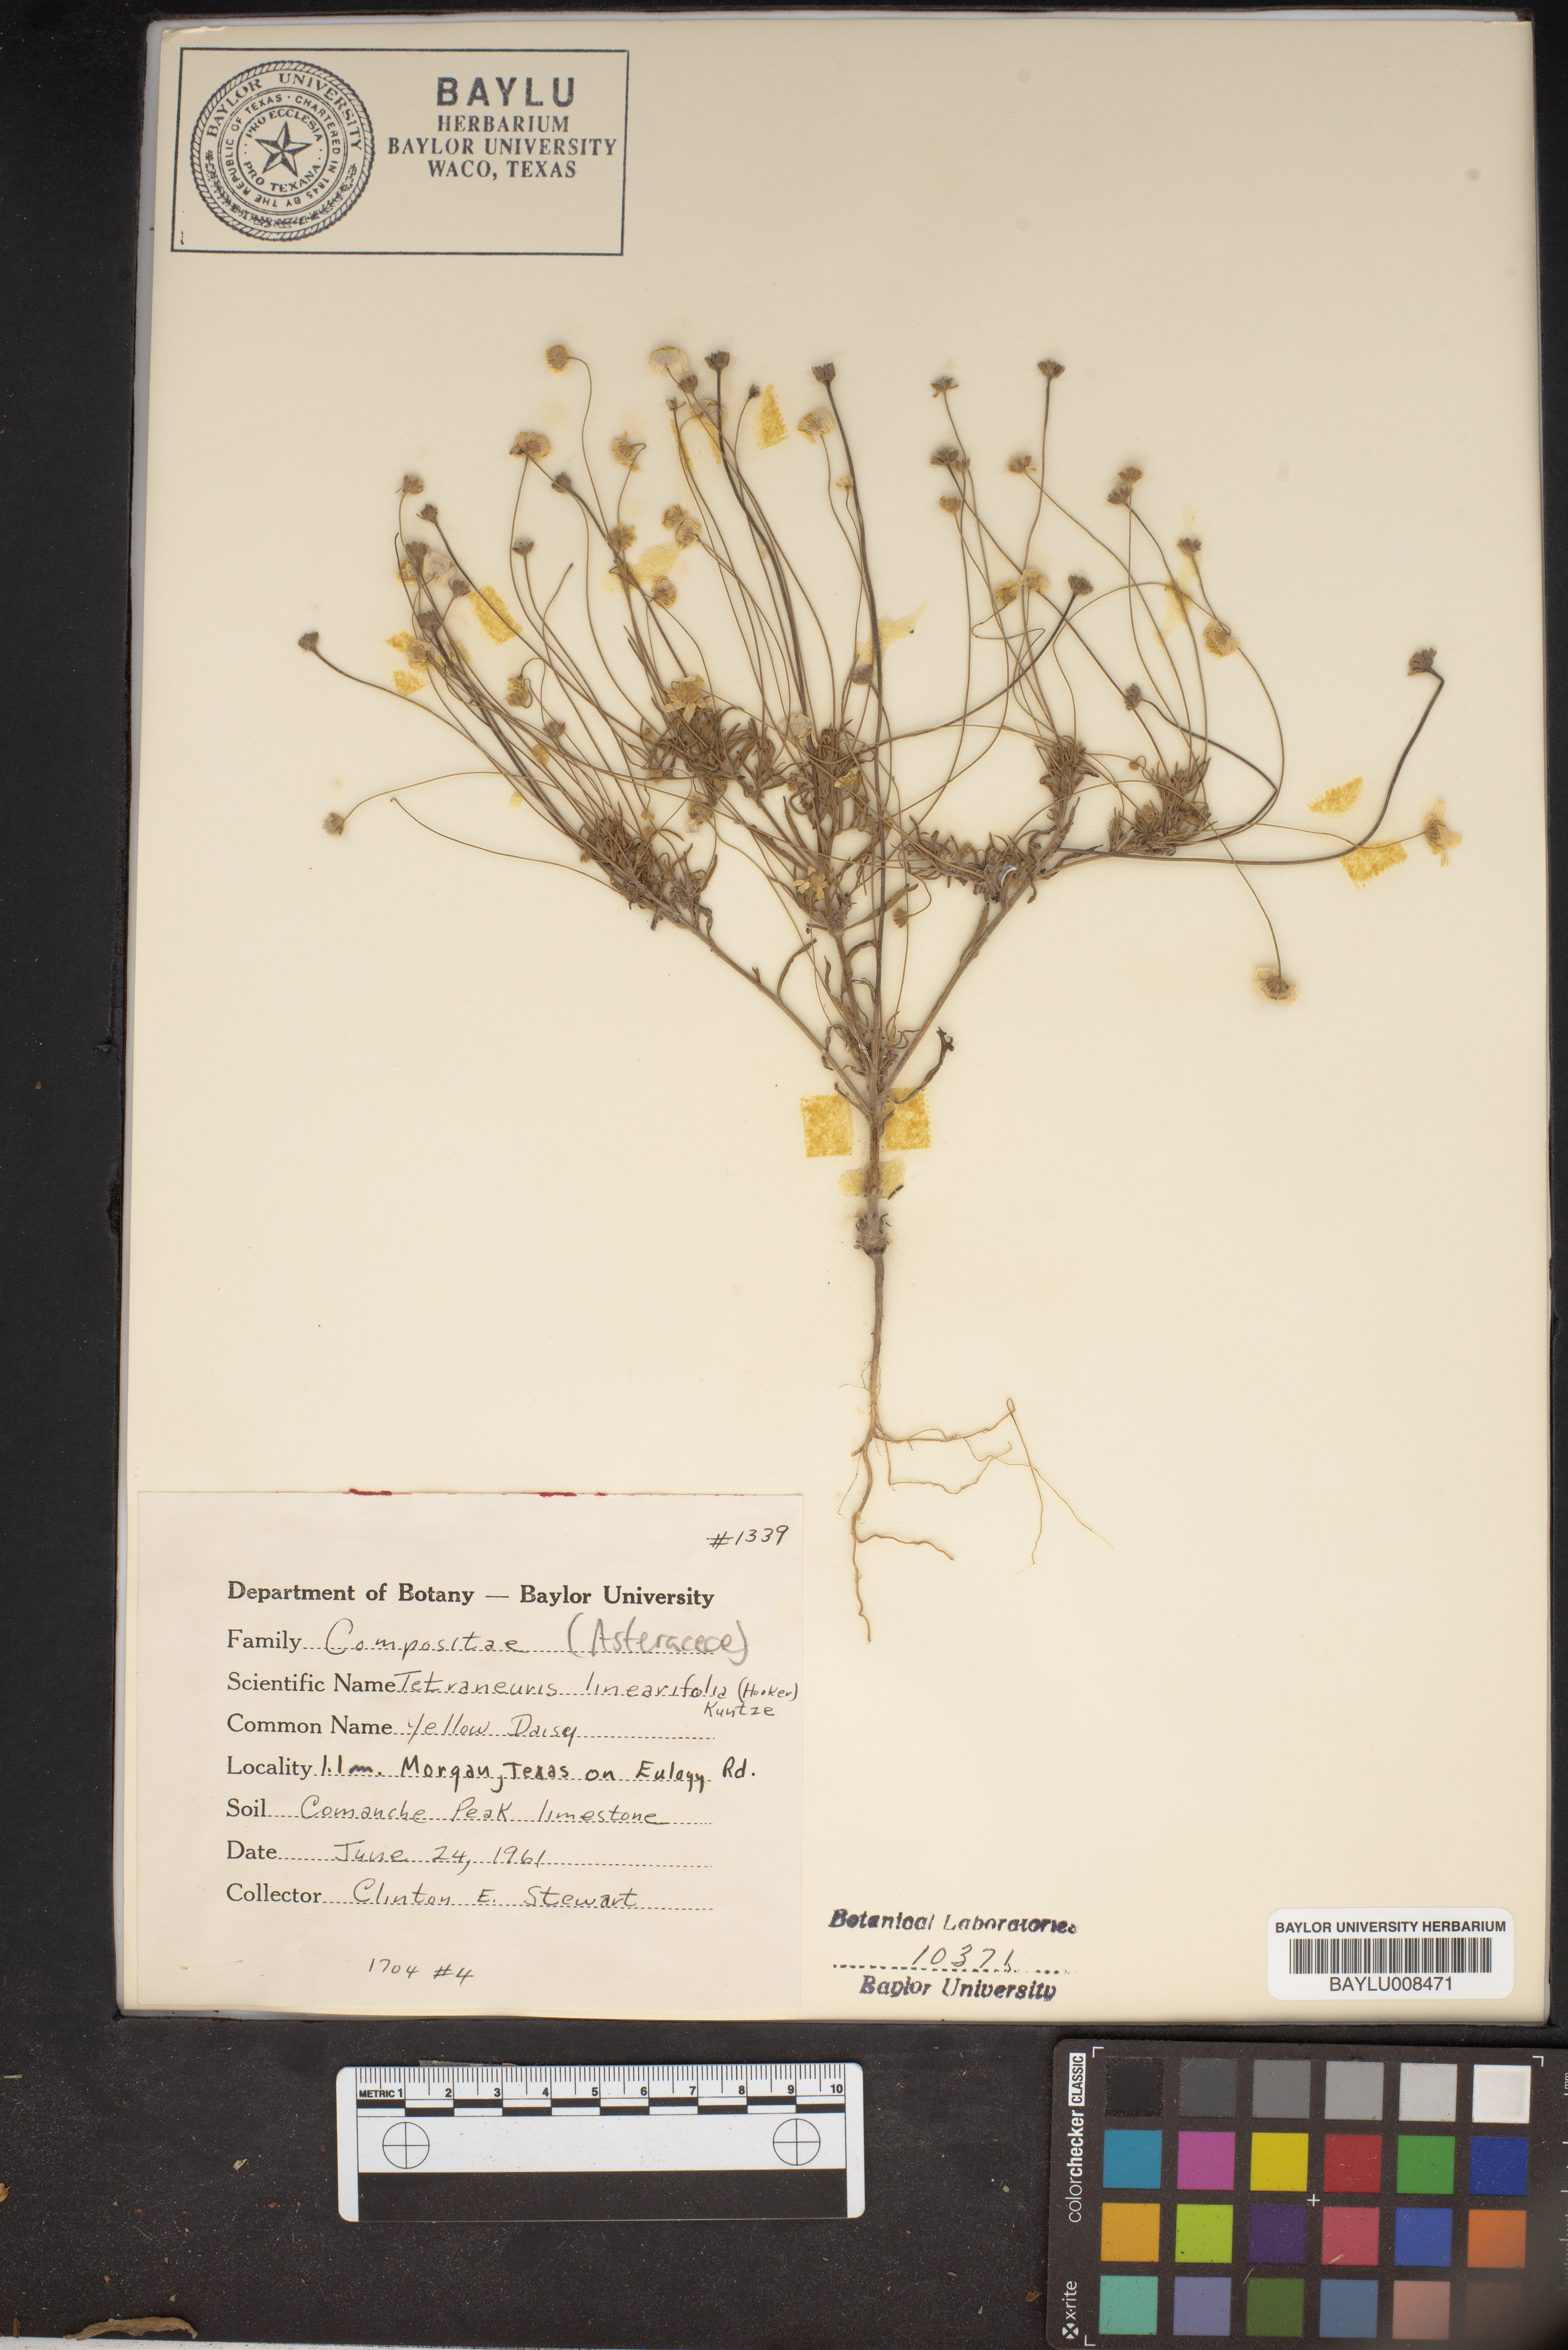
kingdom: Plantae
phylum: Tracheophyta
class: Magnoliopsida
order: Asterales
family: Asteraceae
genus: Tetraneuris
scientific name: Tetraneuris linearifolia
